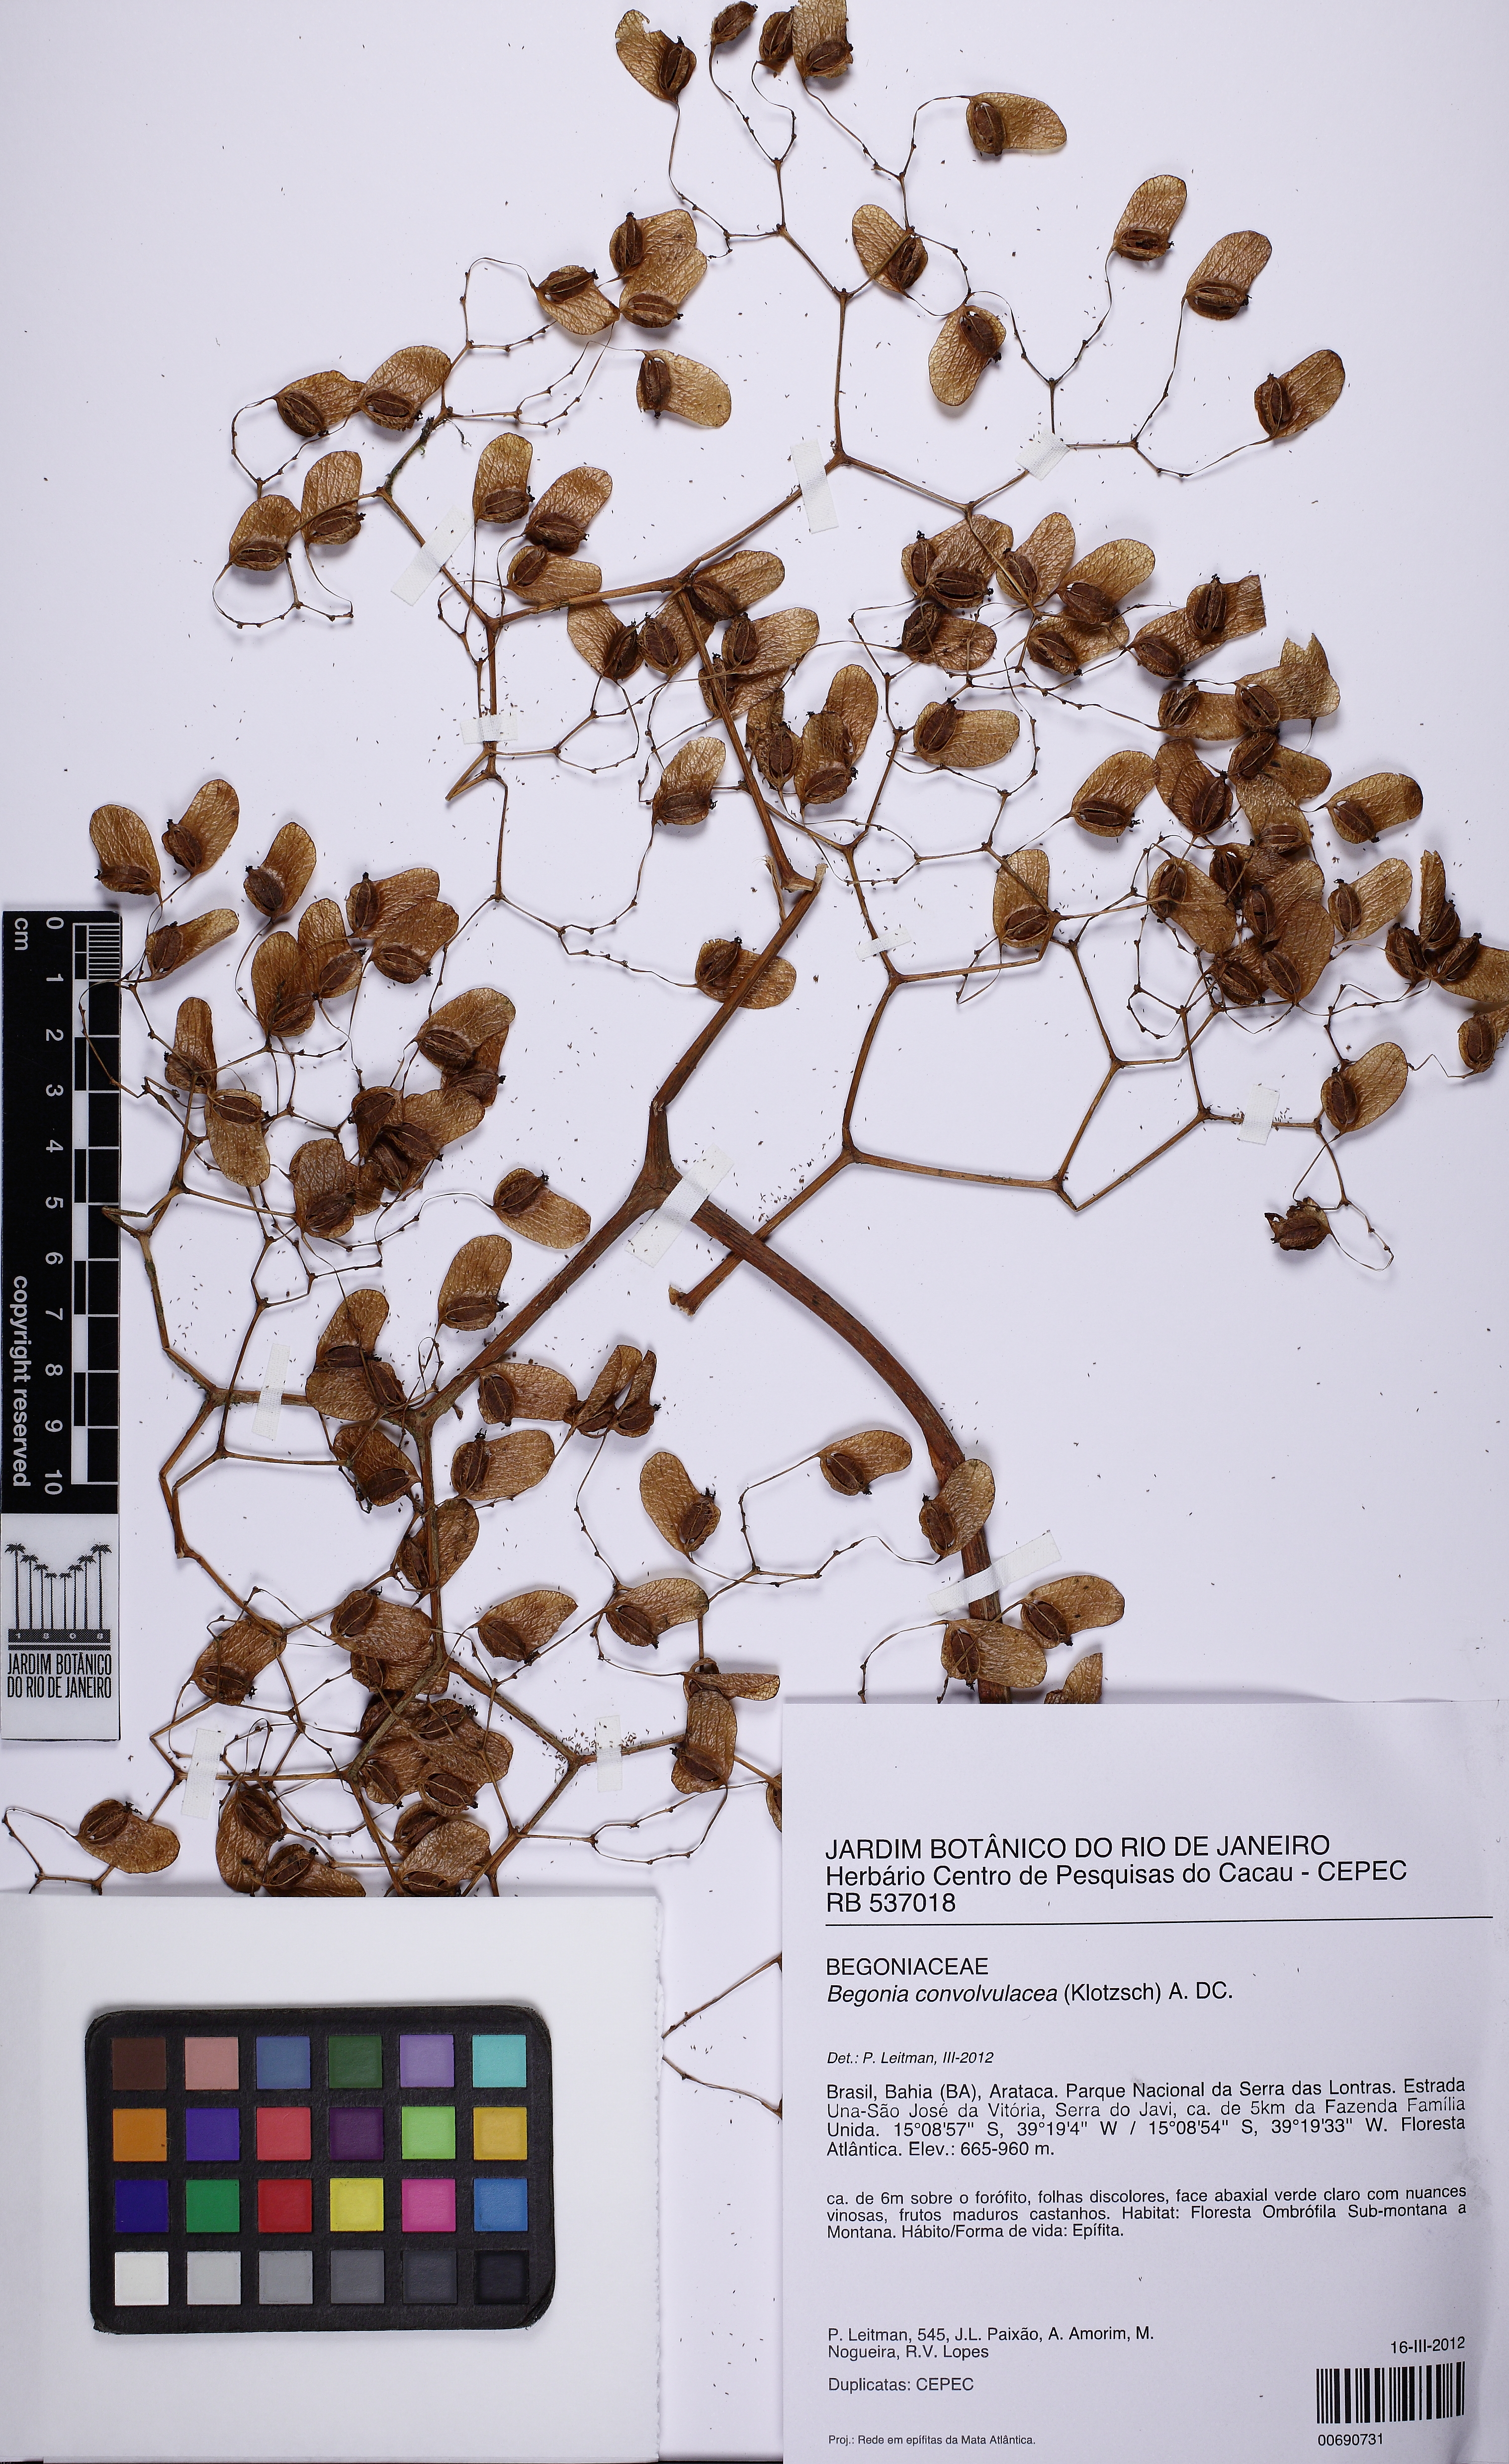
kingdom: Plantae
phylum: Tracheophyta
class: Magnoliopsida
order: Cucurbitales
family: Begoniaceae
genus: Begonia
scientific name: Begonia convolvulacea
